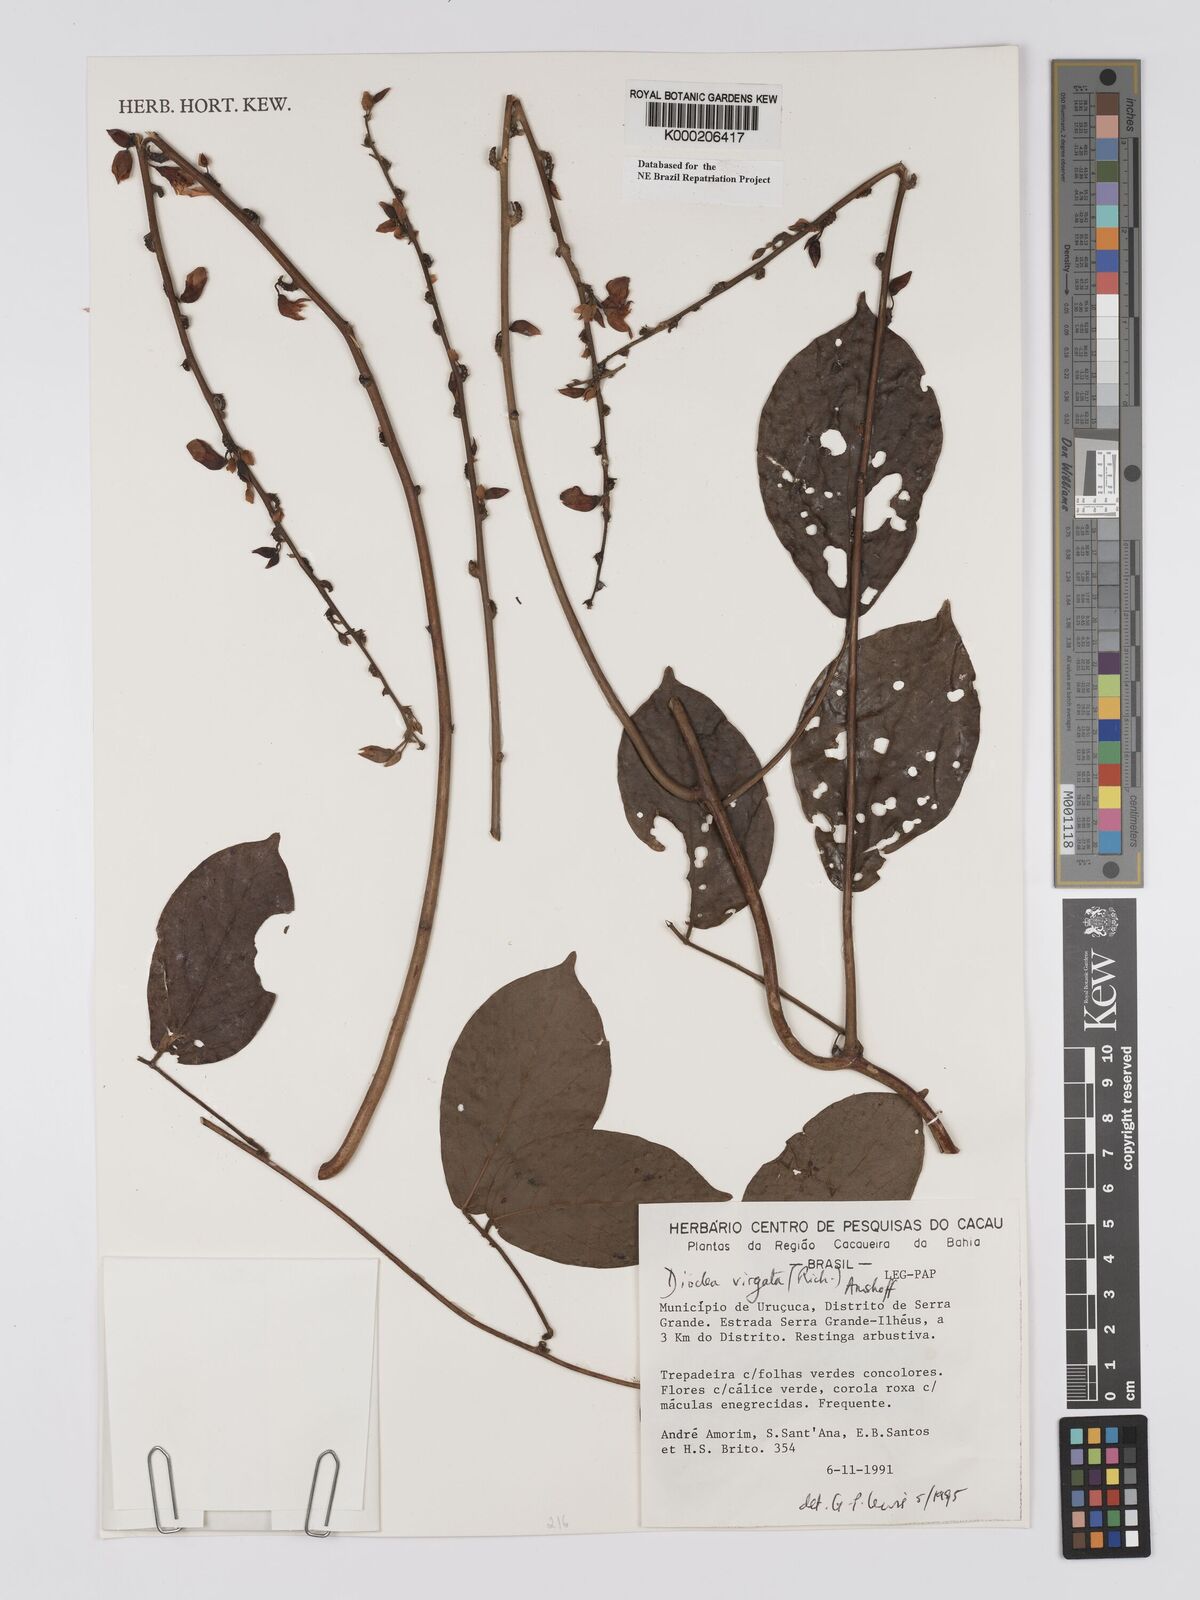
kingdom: Plantae
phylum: Tracheophyta
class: Magnoliopsida
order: Fabales
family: Fabaceae
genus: Dioclea
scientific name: Dioclea virgata
